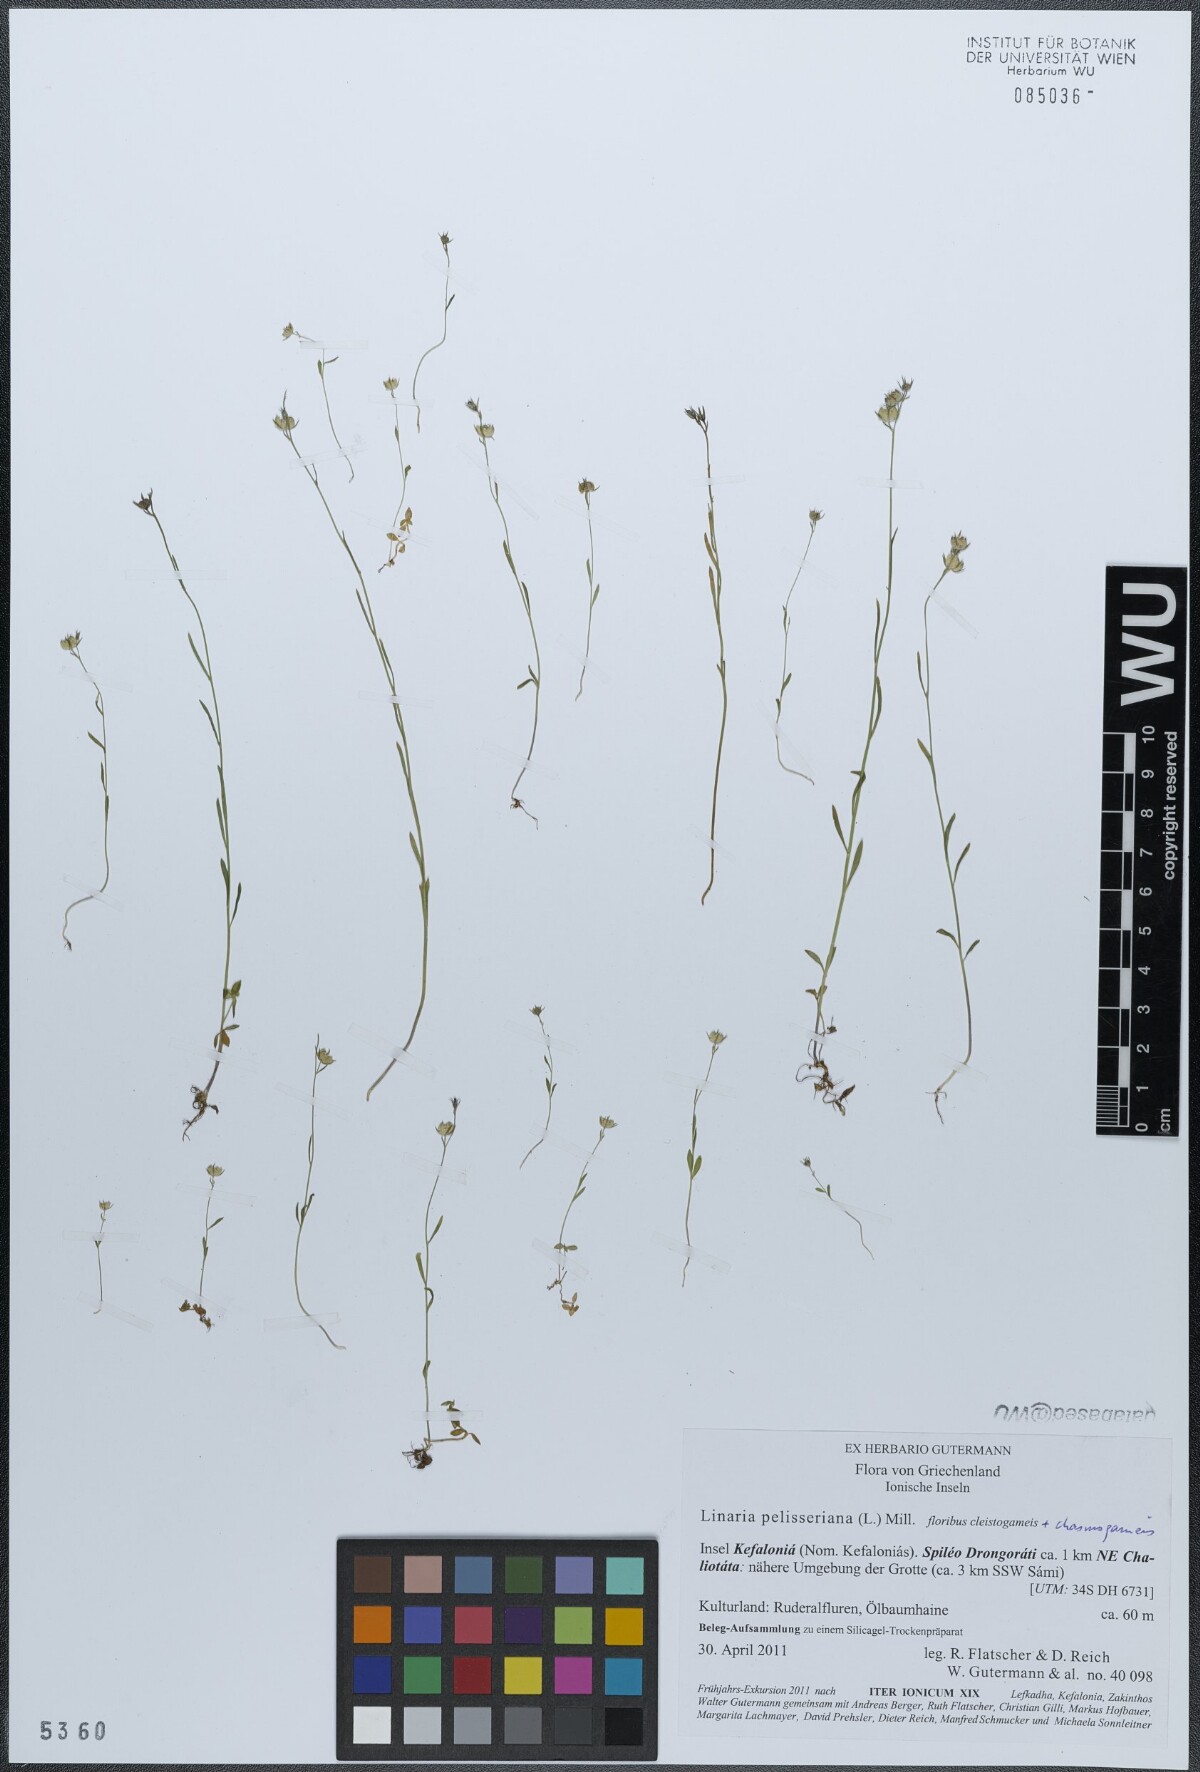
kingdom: Plantae
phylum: Tracheophyta
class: Magnoliopsida
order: Lamiales
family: Plantaginaceae
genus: Linaria
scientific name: Linaria pelisseriana
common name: Jersey toadflax
